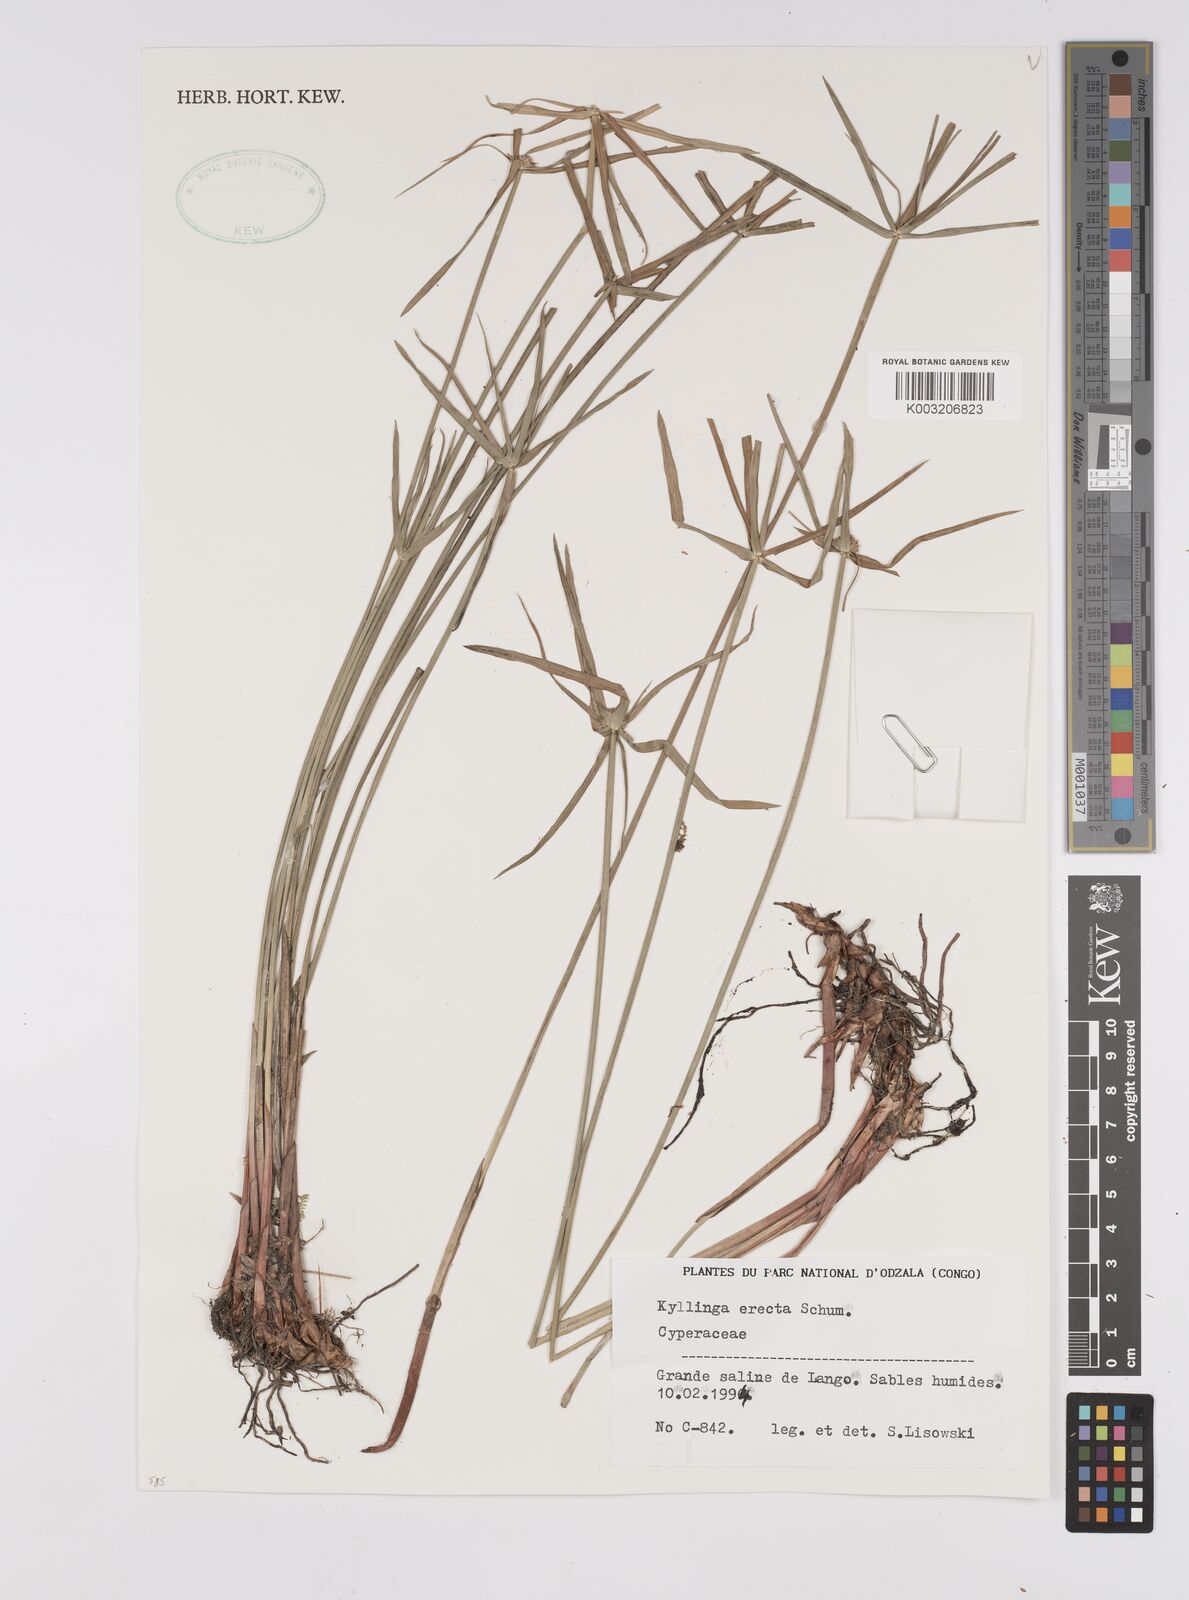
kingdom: Plantae
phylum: Tracheophyta
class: Liliopsida
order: Poales
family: Cyperaceae
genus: Cyperus
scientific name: Cyperus erectus
